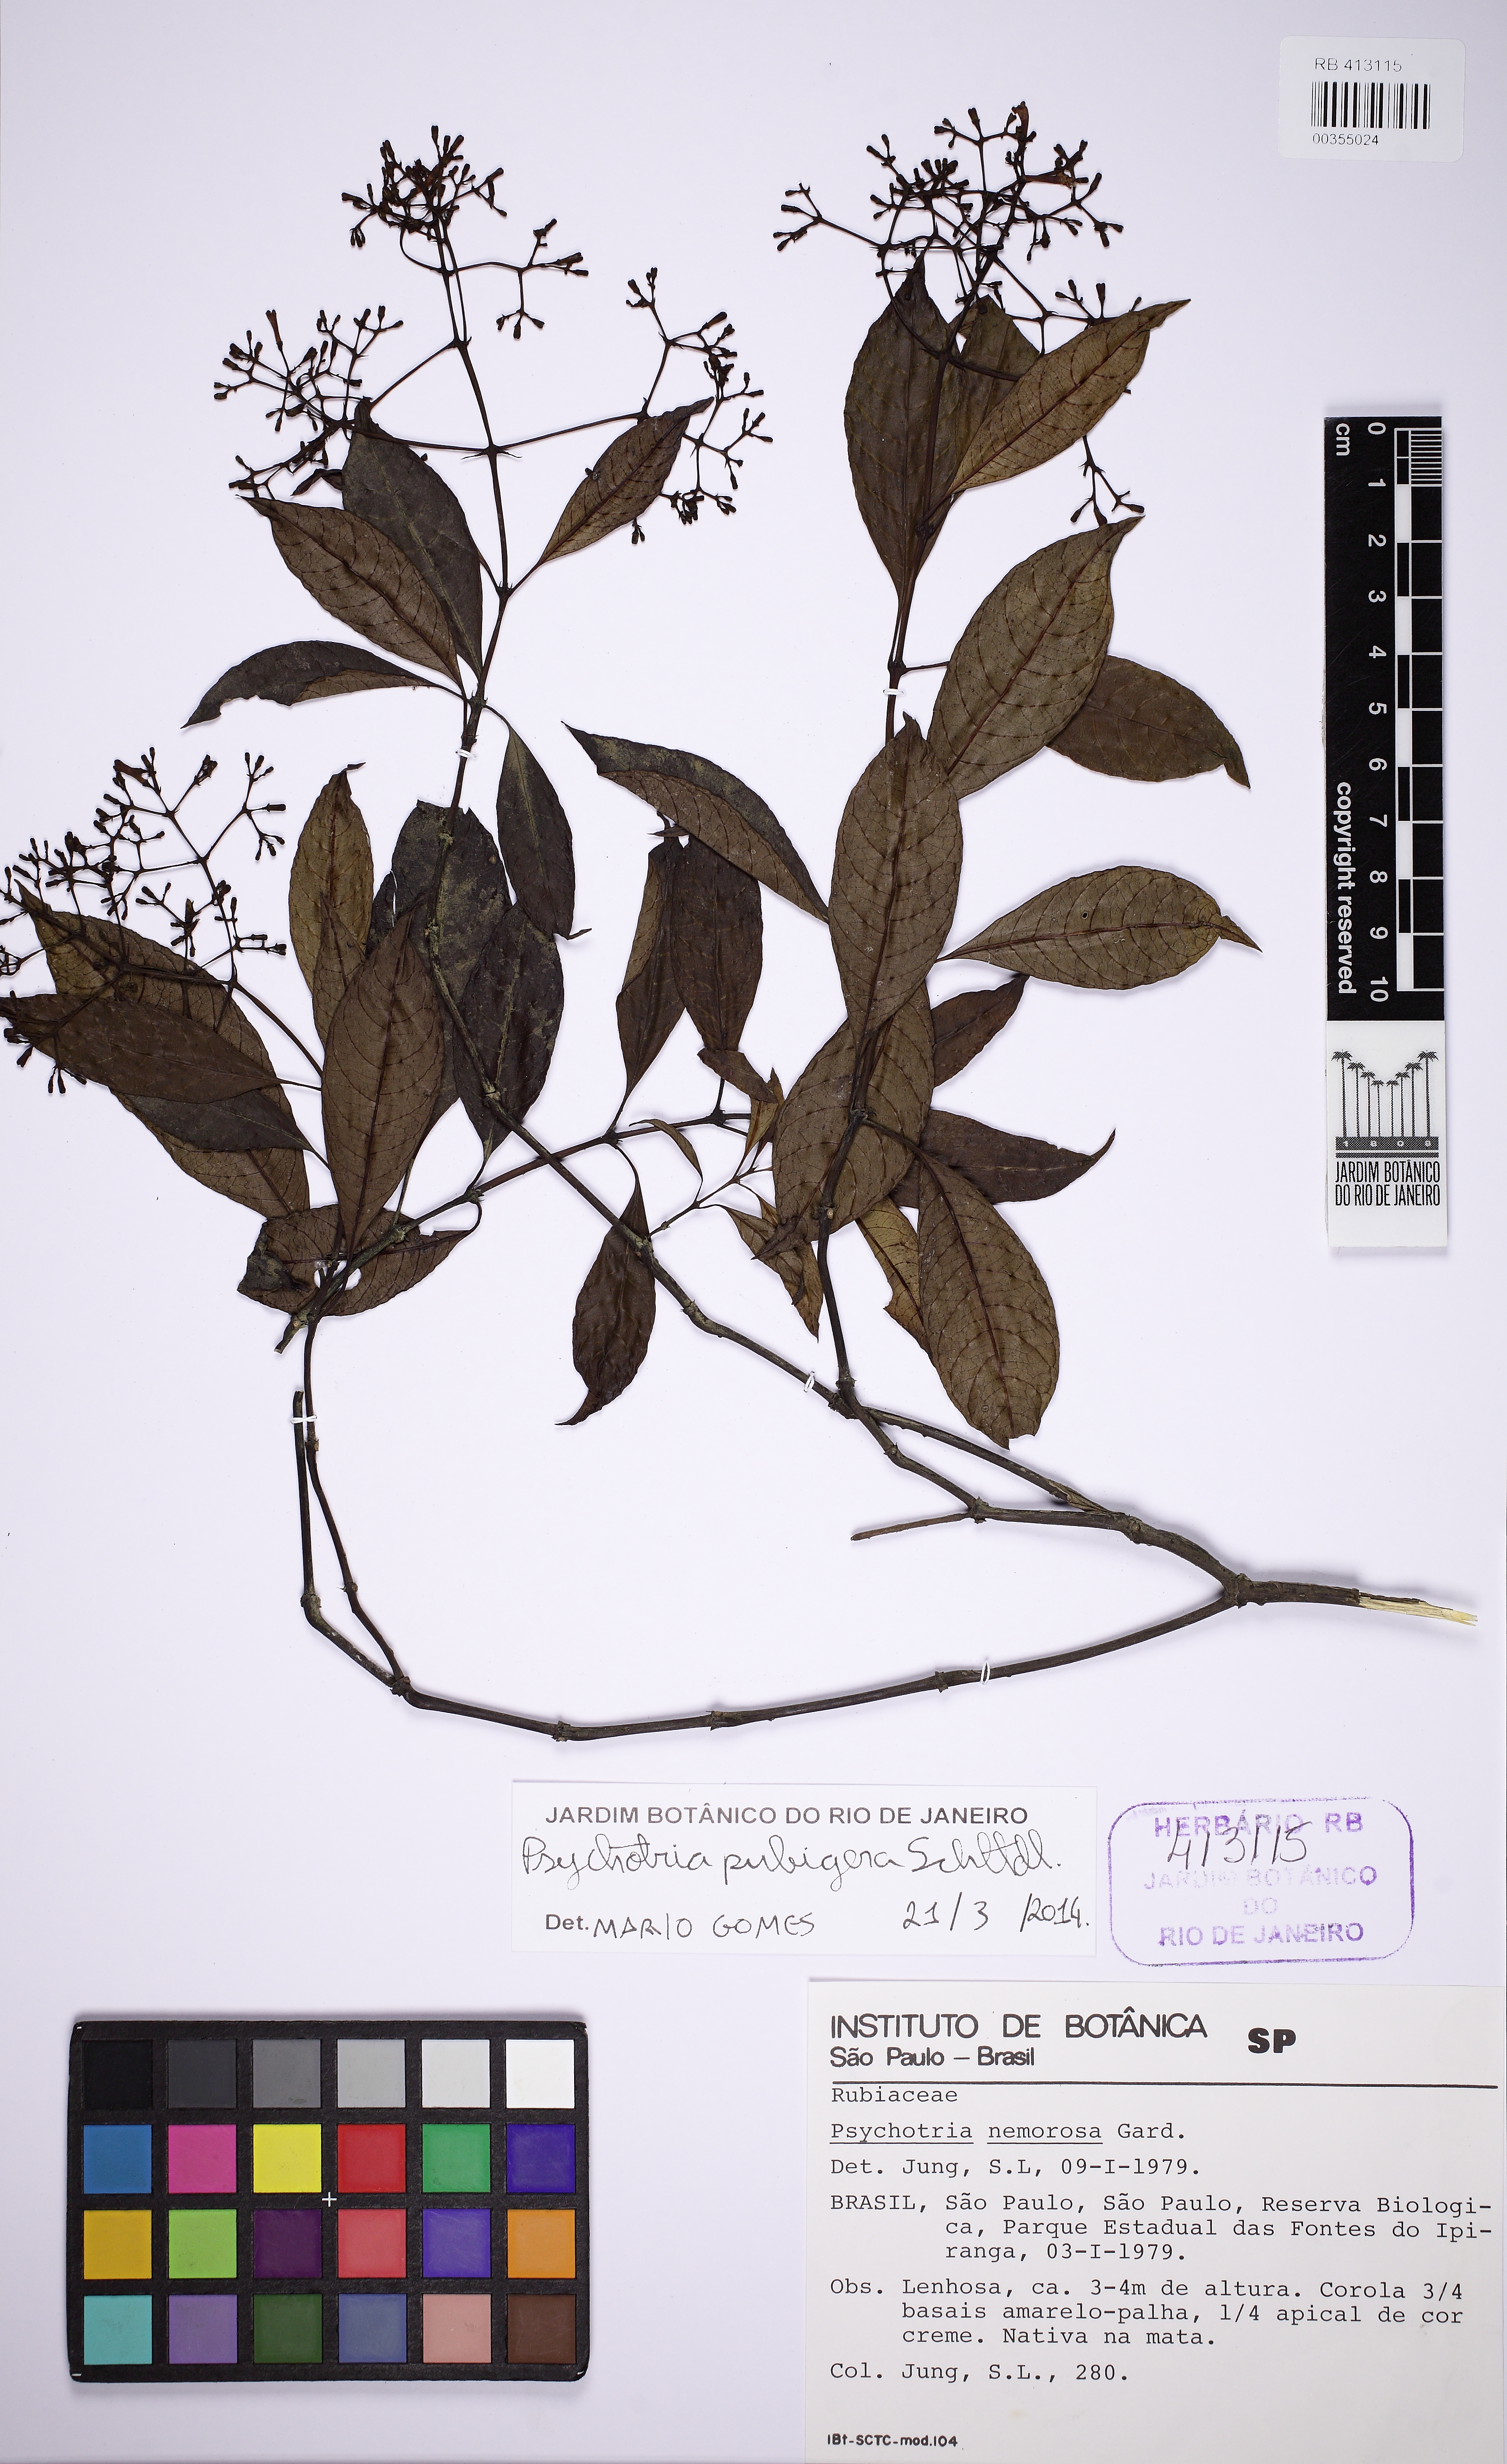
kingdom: Plantae
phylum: Tracheophyta
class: Magnoliopsida
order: Gentianales
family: Rubiaceae
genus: Psychotria
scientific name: Psychotria nemorosa
